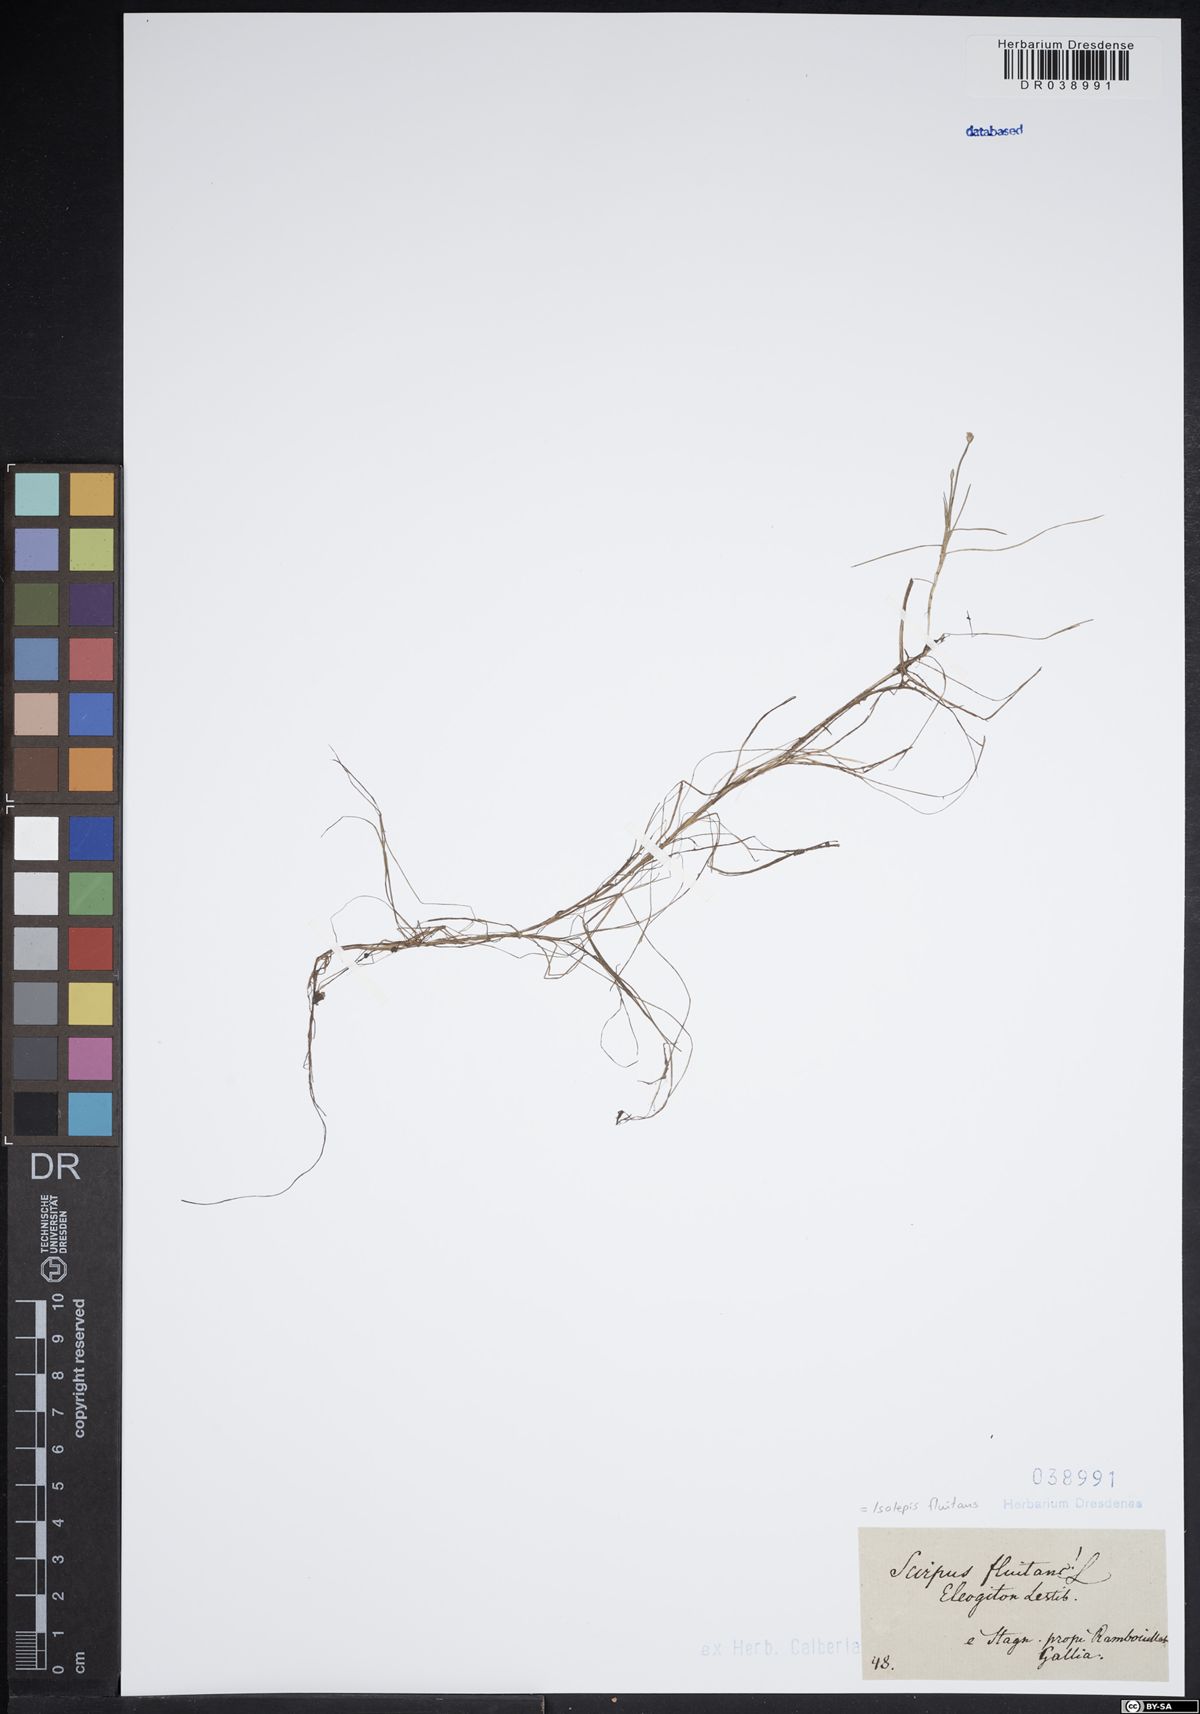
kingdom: Plantae
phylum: Tracheophyta
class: Liliopsida
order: Poales
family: Cyperaceae
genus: Isolepis
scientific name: Isolepis fluitans
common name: Floating club-rush
